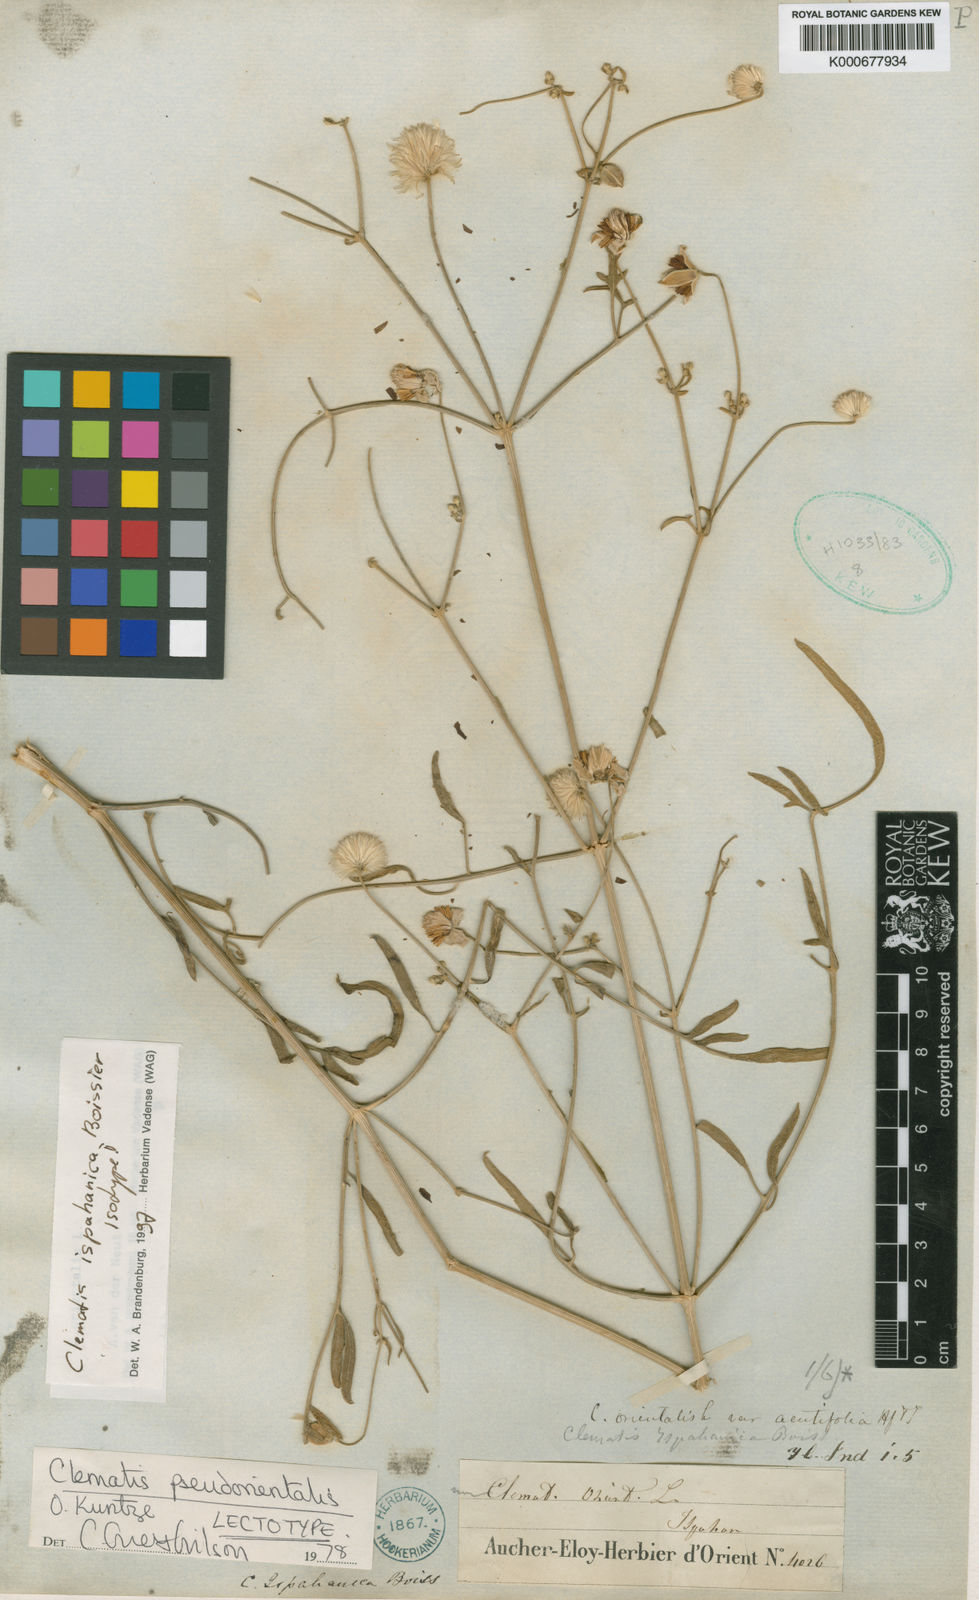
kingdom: Plantae
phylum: Tracheophyta
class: Magnoliopsida
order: Ranunculales
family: Ranunculaceae
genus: Clematis
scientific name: Clematis ispahanica
